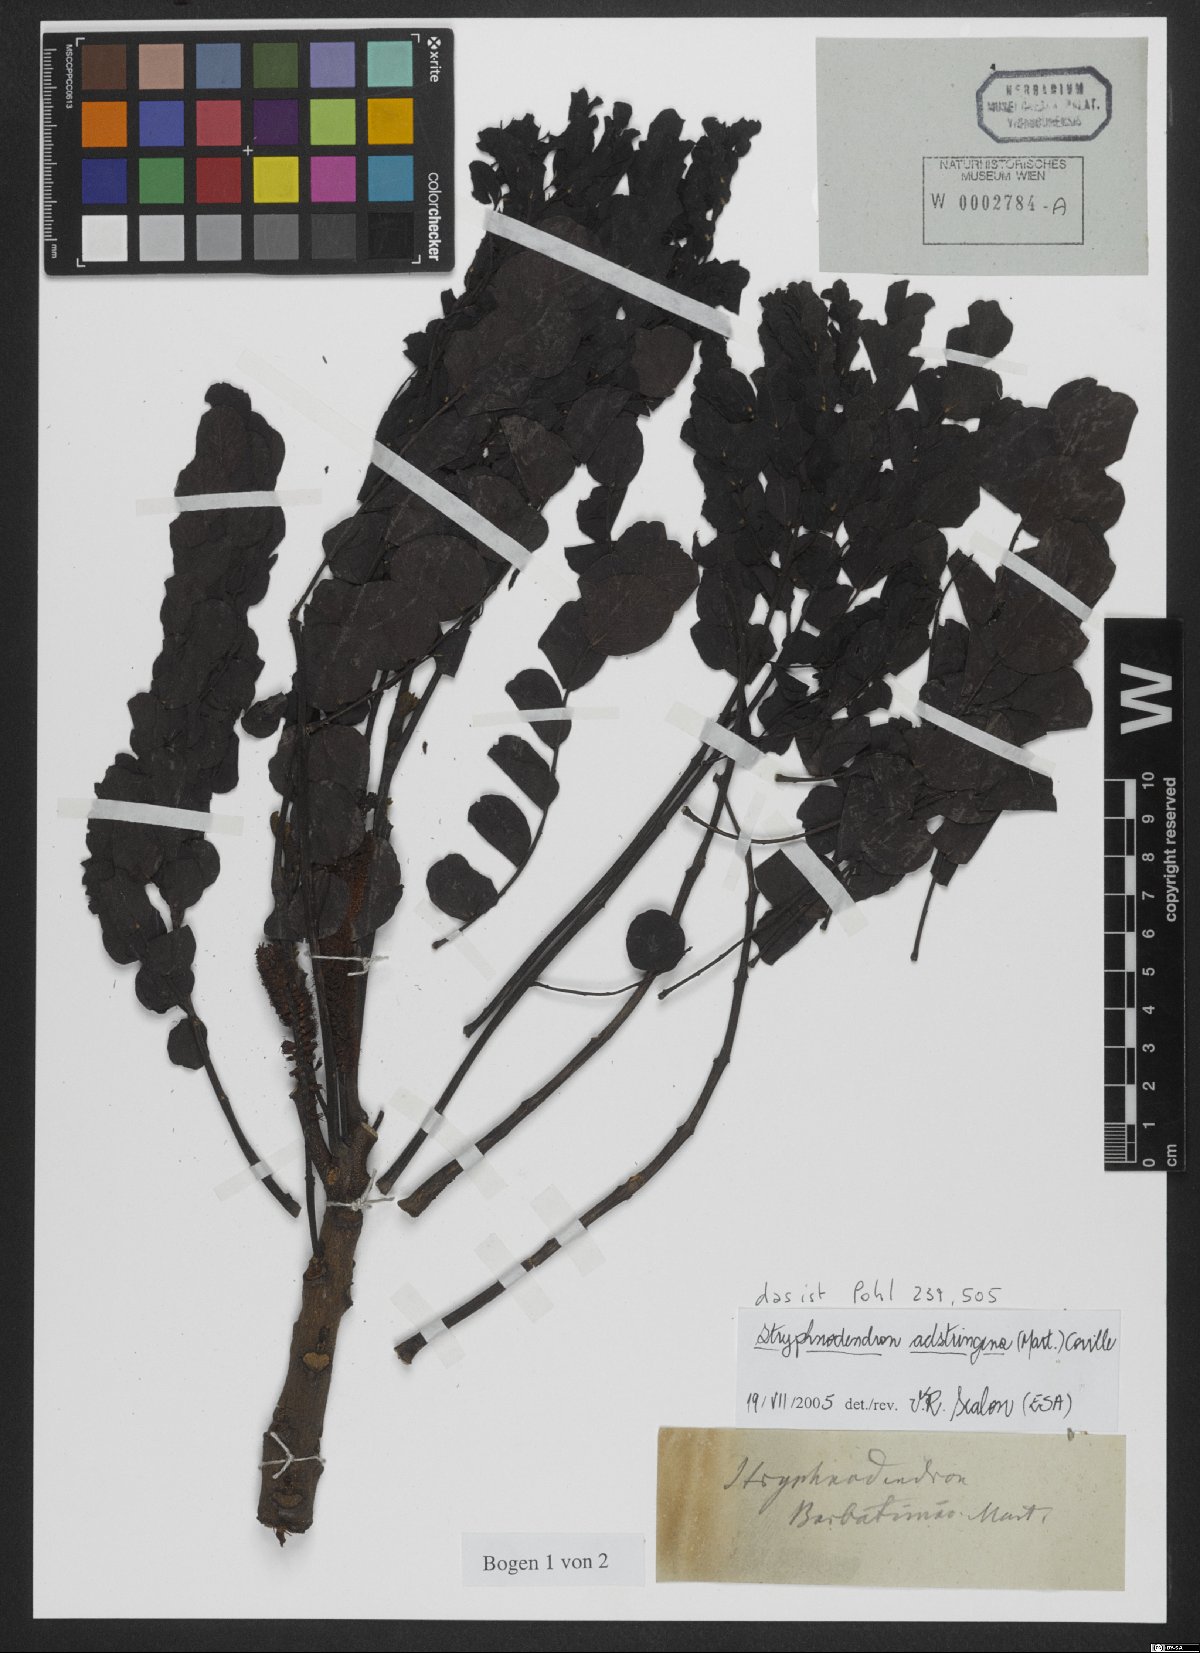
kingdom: Plantae
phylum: Tracheophyta
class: Magnoliopsida
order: Fabales
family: Fabaceae
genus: Erythrina
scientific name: Erythrina fusca
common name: Coral-bean
